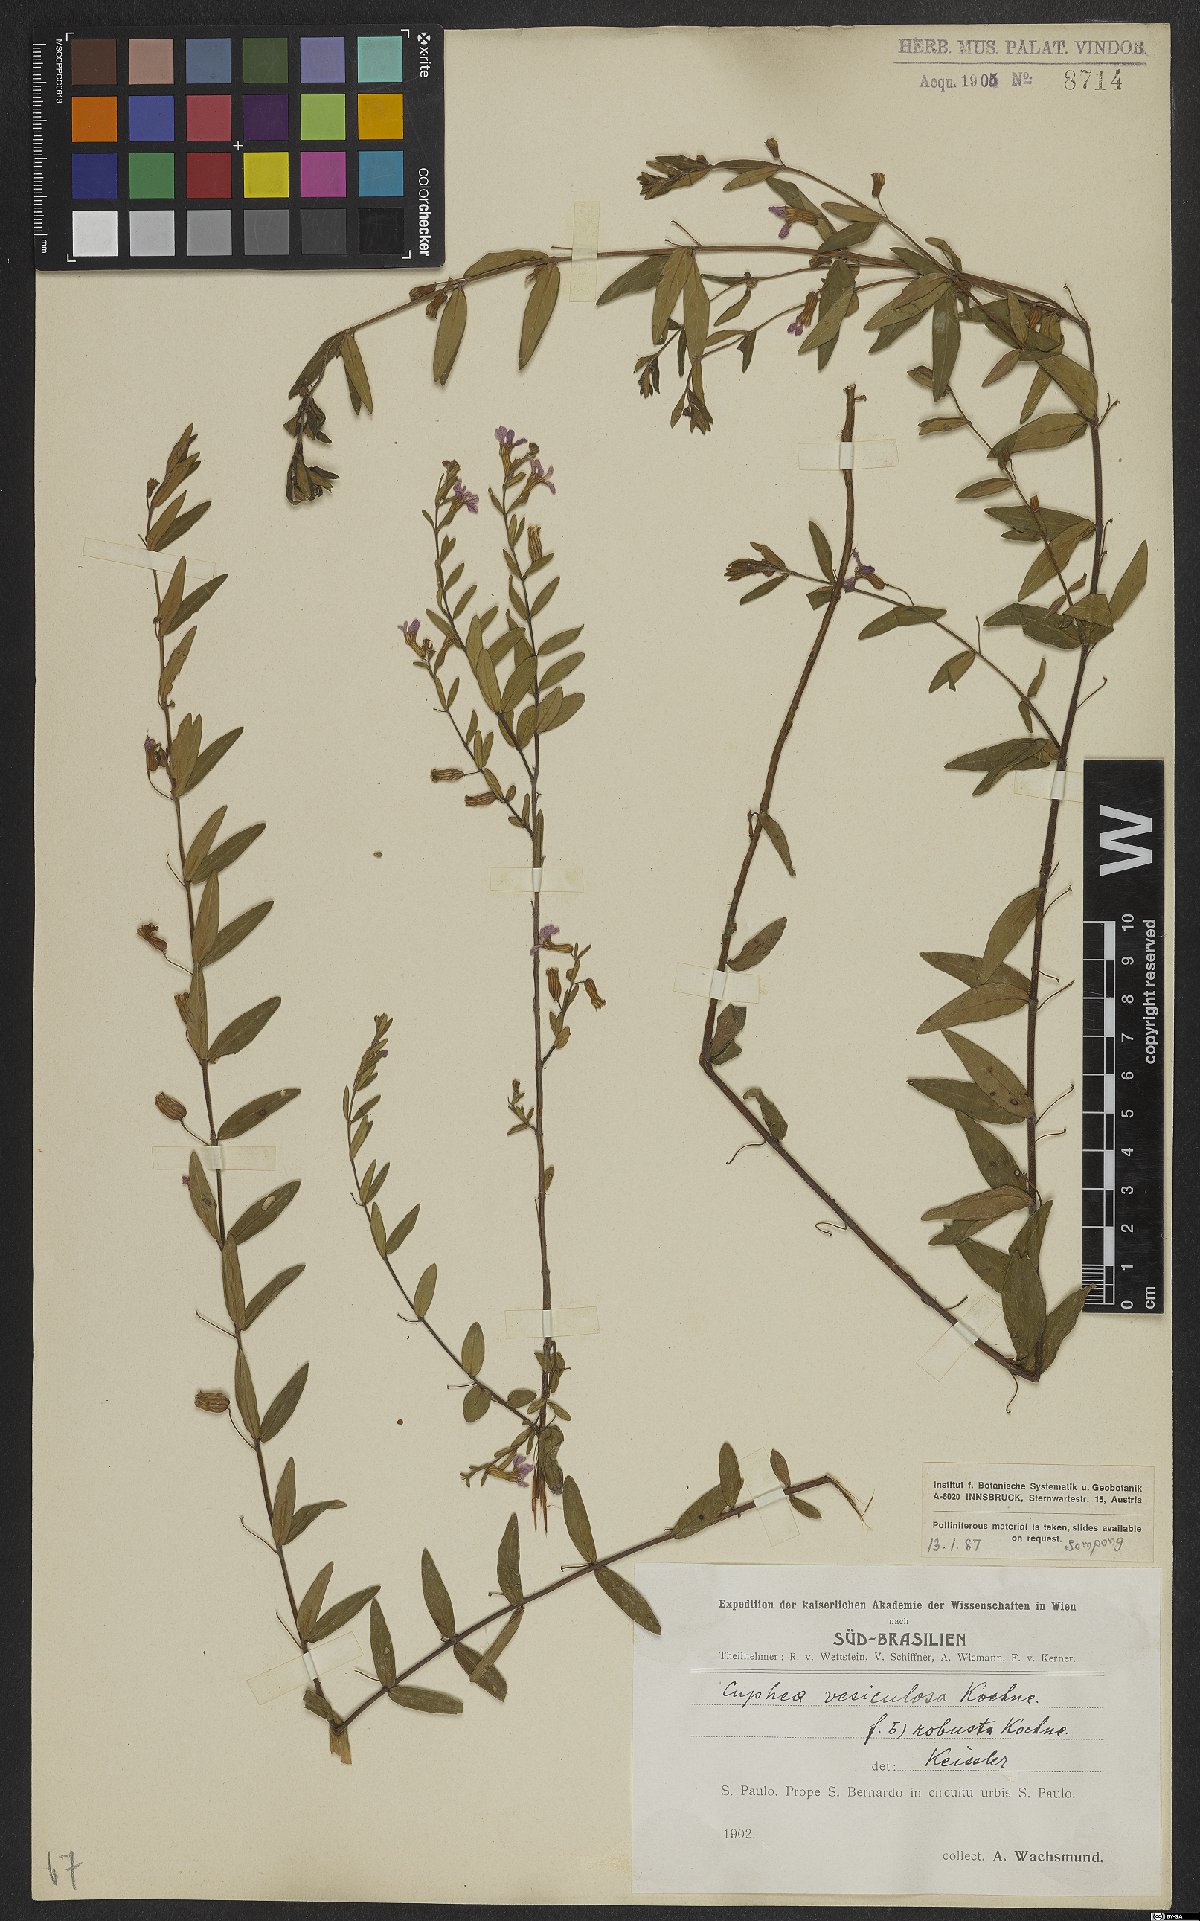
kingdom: Plantae
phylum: Tracheophyta
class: Magnoliopsida
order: Myrtales
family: Lythraceae
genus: Cuphea
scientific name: Cuphea vesiculosa
